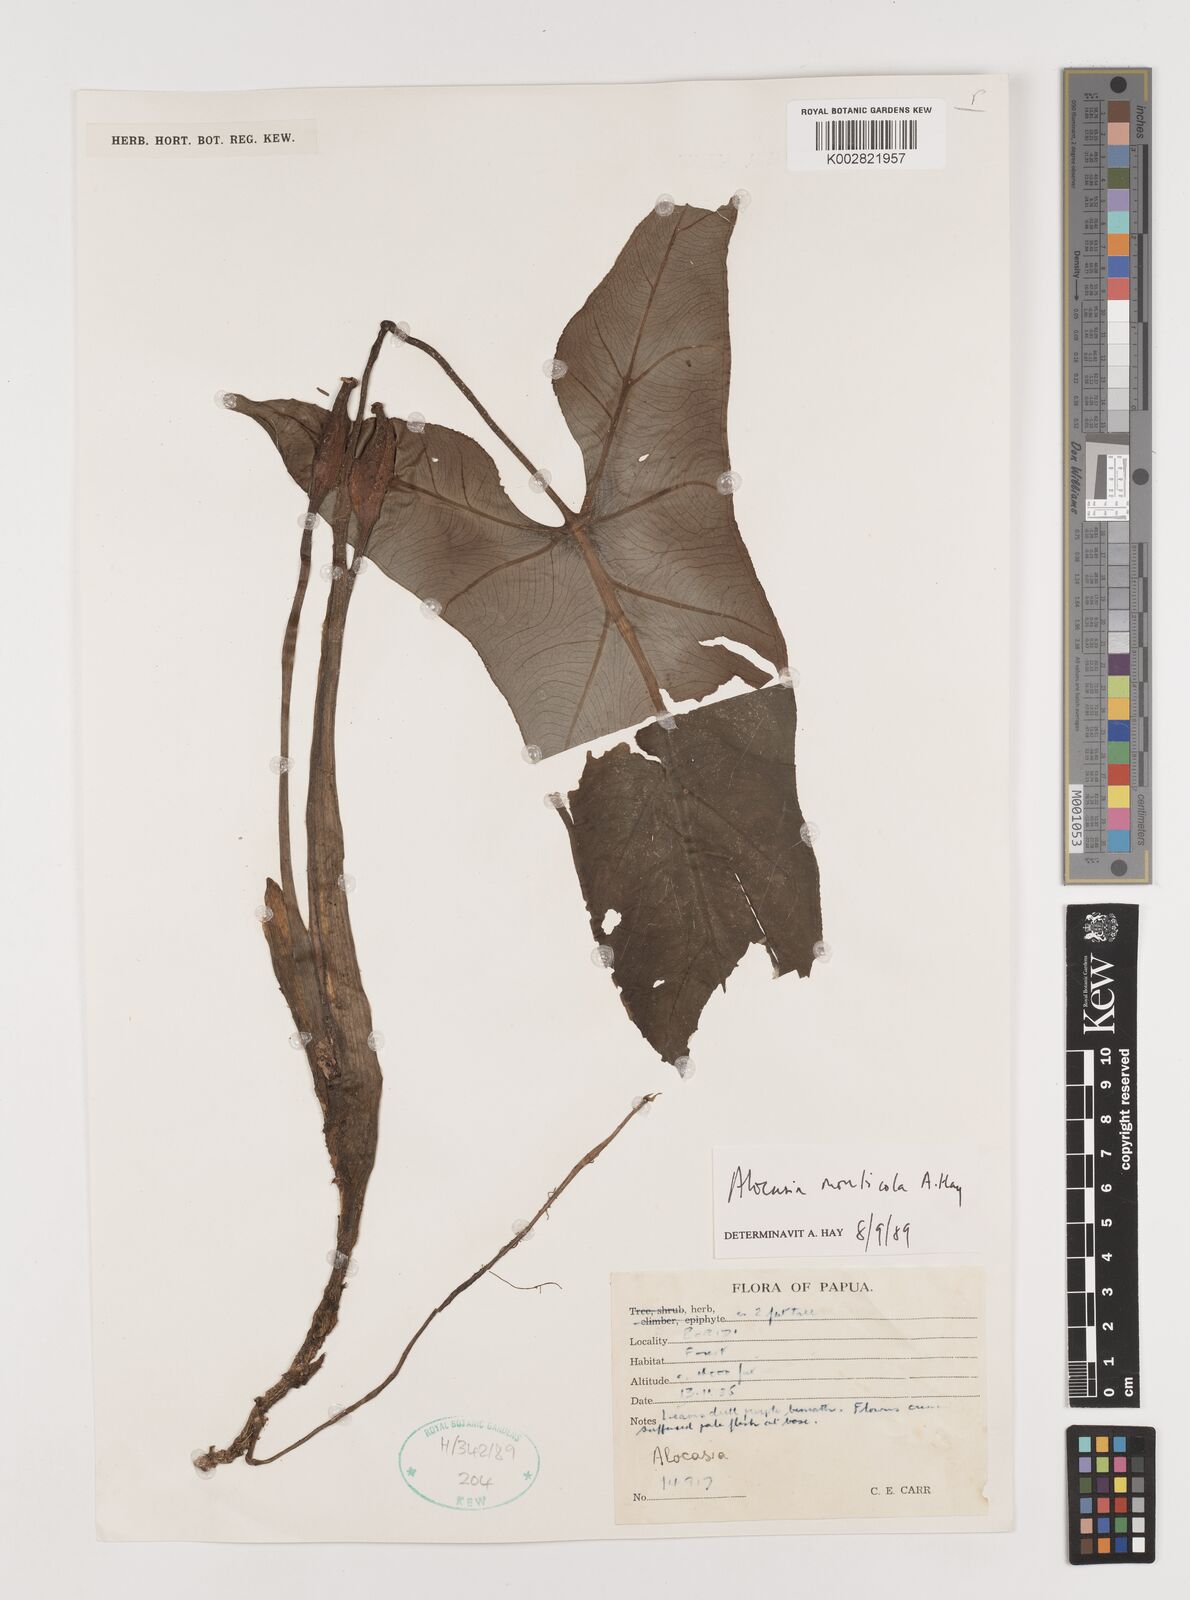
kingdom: Plantae
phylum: Tracheophyta
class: Liliopsida
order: Alismatales
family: Araceae
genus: Alocasia
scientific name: Alocasia monticola
